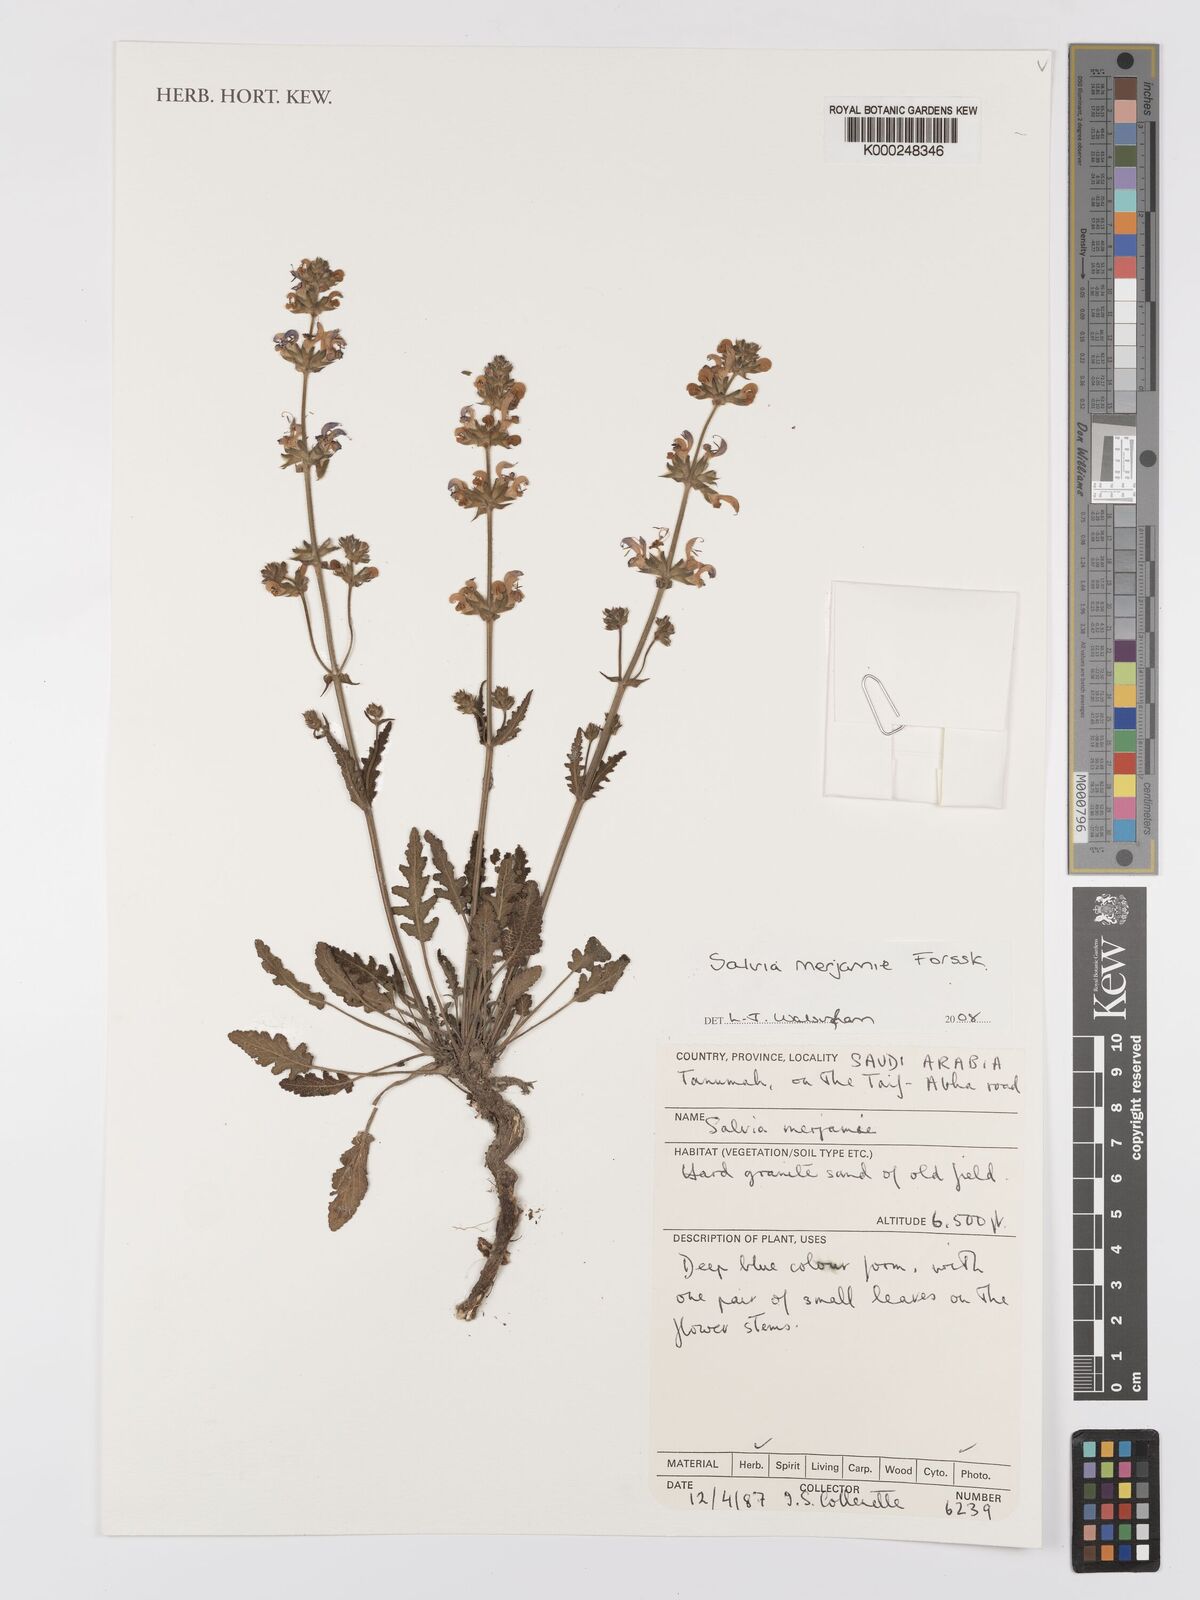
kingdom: Plantae
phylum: Tracheophyta
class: Magnoliopsida
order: Lamiales
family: Lamiaceae
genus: Salvia
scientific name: Salvia merjamie
